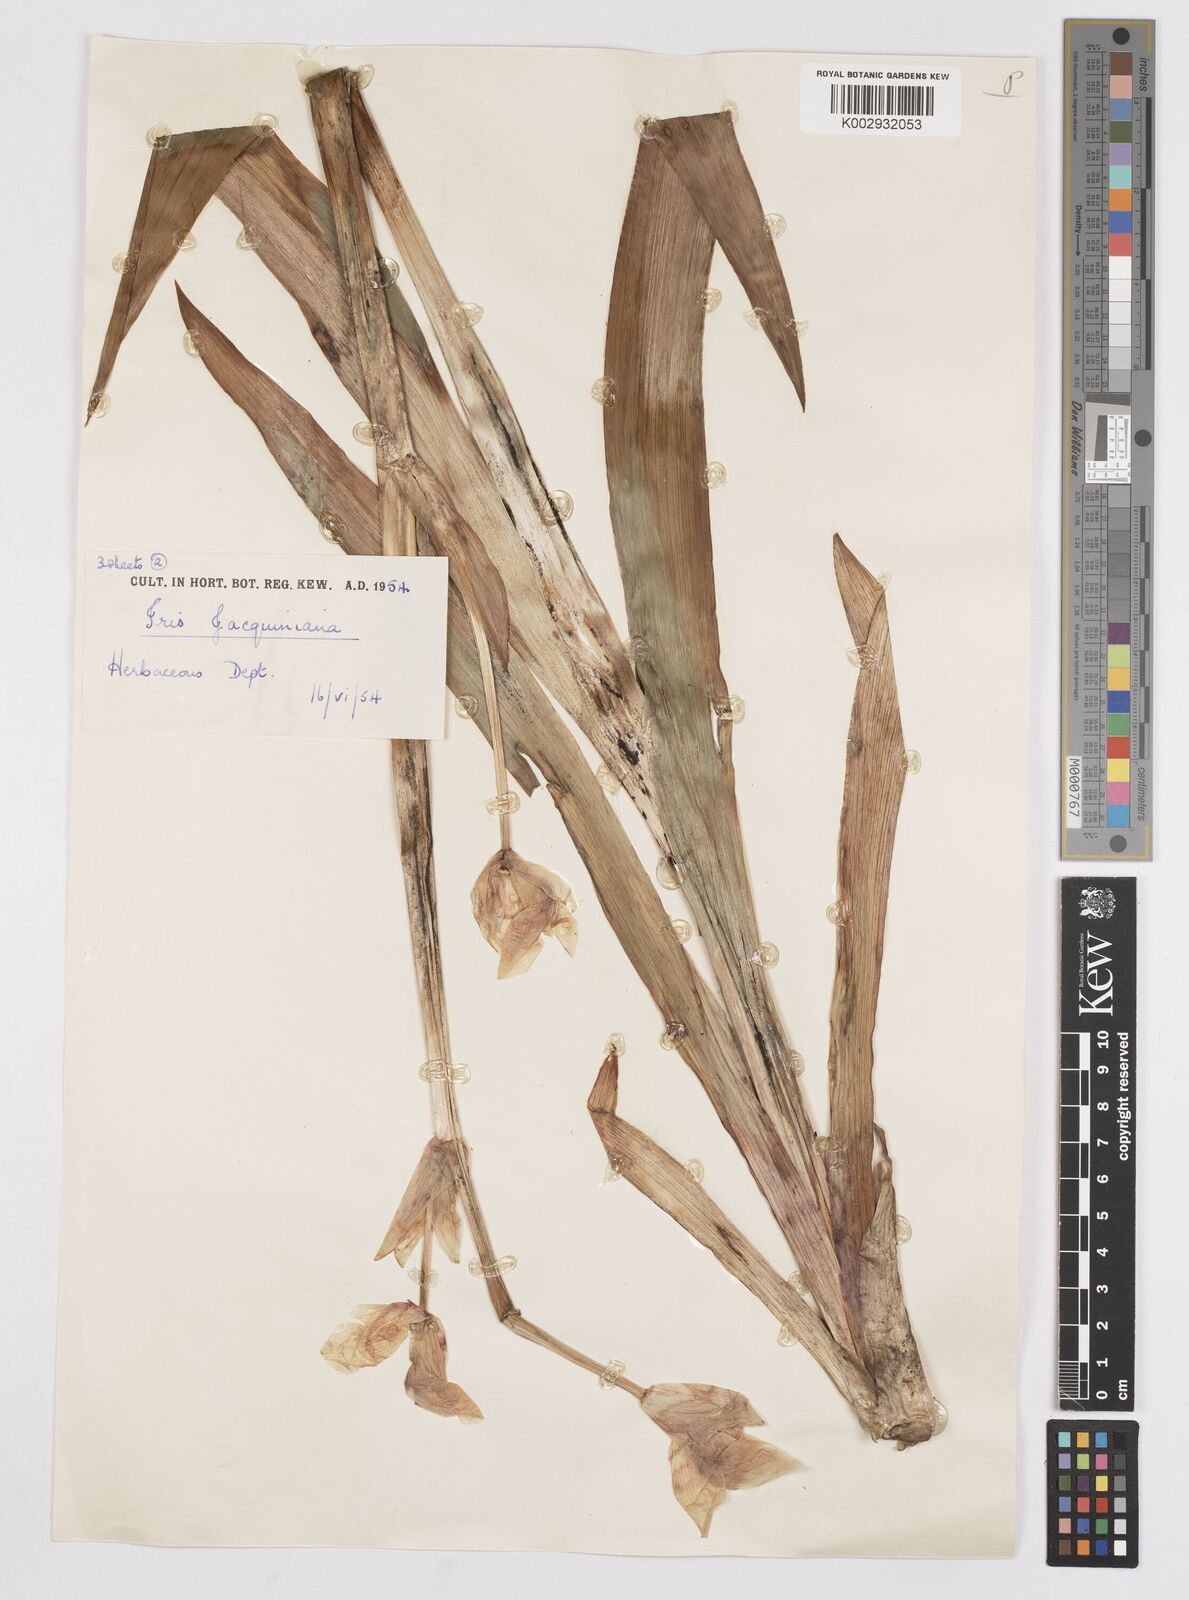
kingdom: Plantae
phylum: Tracheophyta
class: Liliopsida
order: Asparagales
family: Iridaceae
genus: Iris
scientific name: Iris
